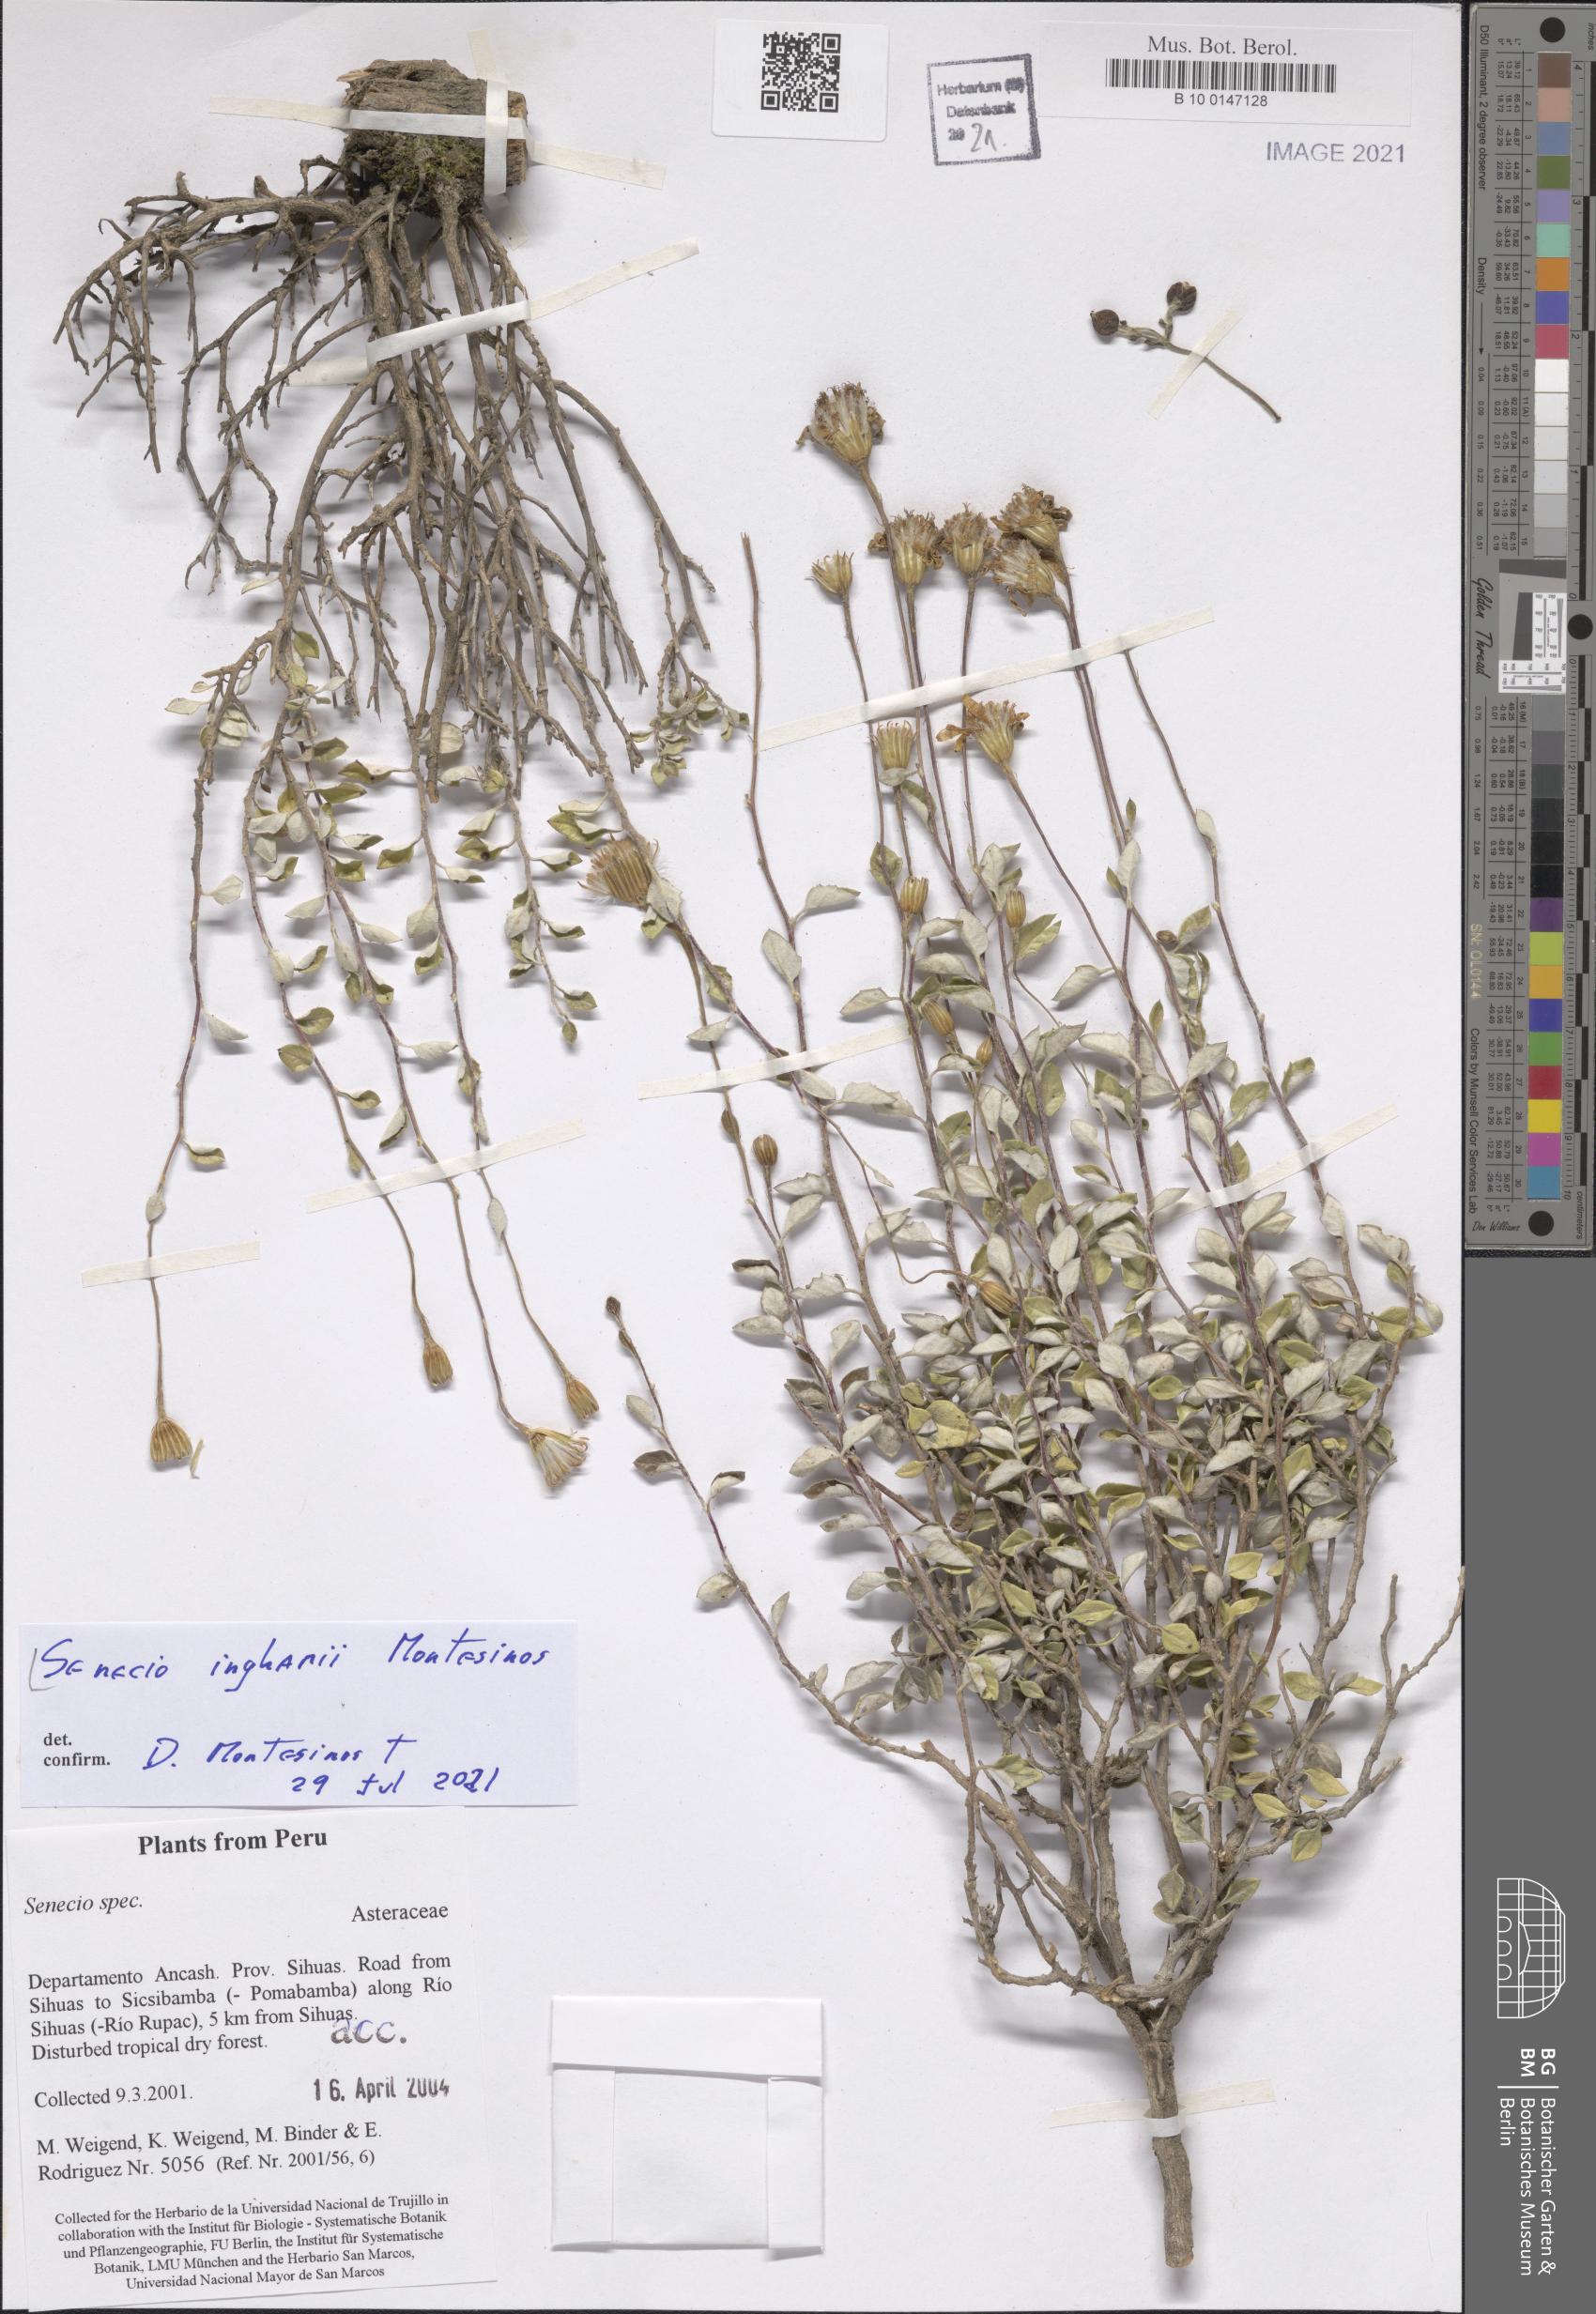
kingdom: Plantae
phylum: Tracheophyta
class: Magnoliopsida
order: Asterales
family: Asteraceae
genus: Senecio
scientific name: Senecio inghamii
